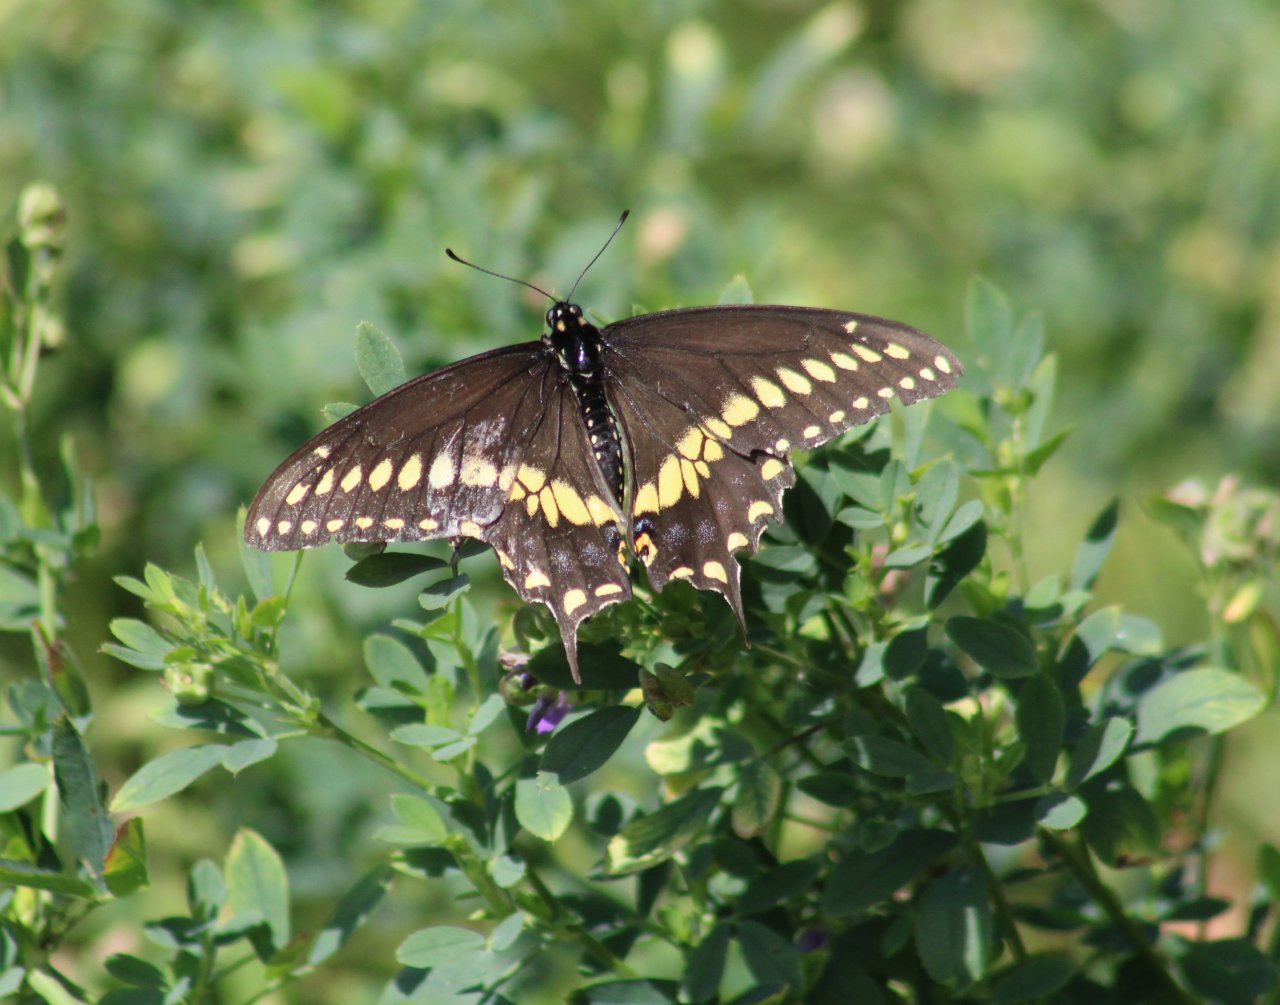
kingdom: Animalia
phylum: Arthropoda
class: Insecta
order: Lepidoptera
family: Papilionidae
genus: Papilio
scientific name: Papilio polyxenes
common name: Black Swallowtail
